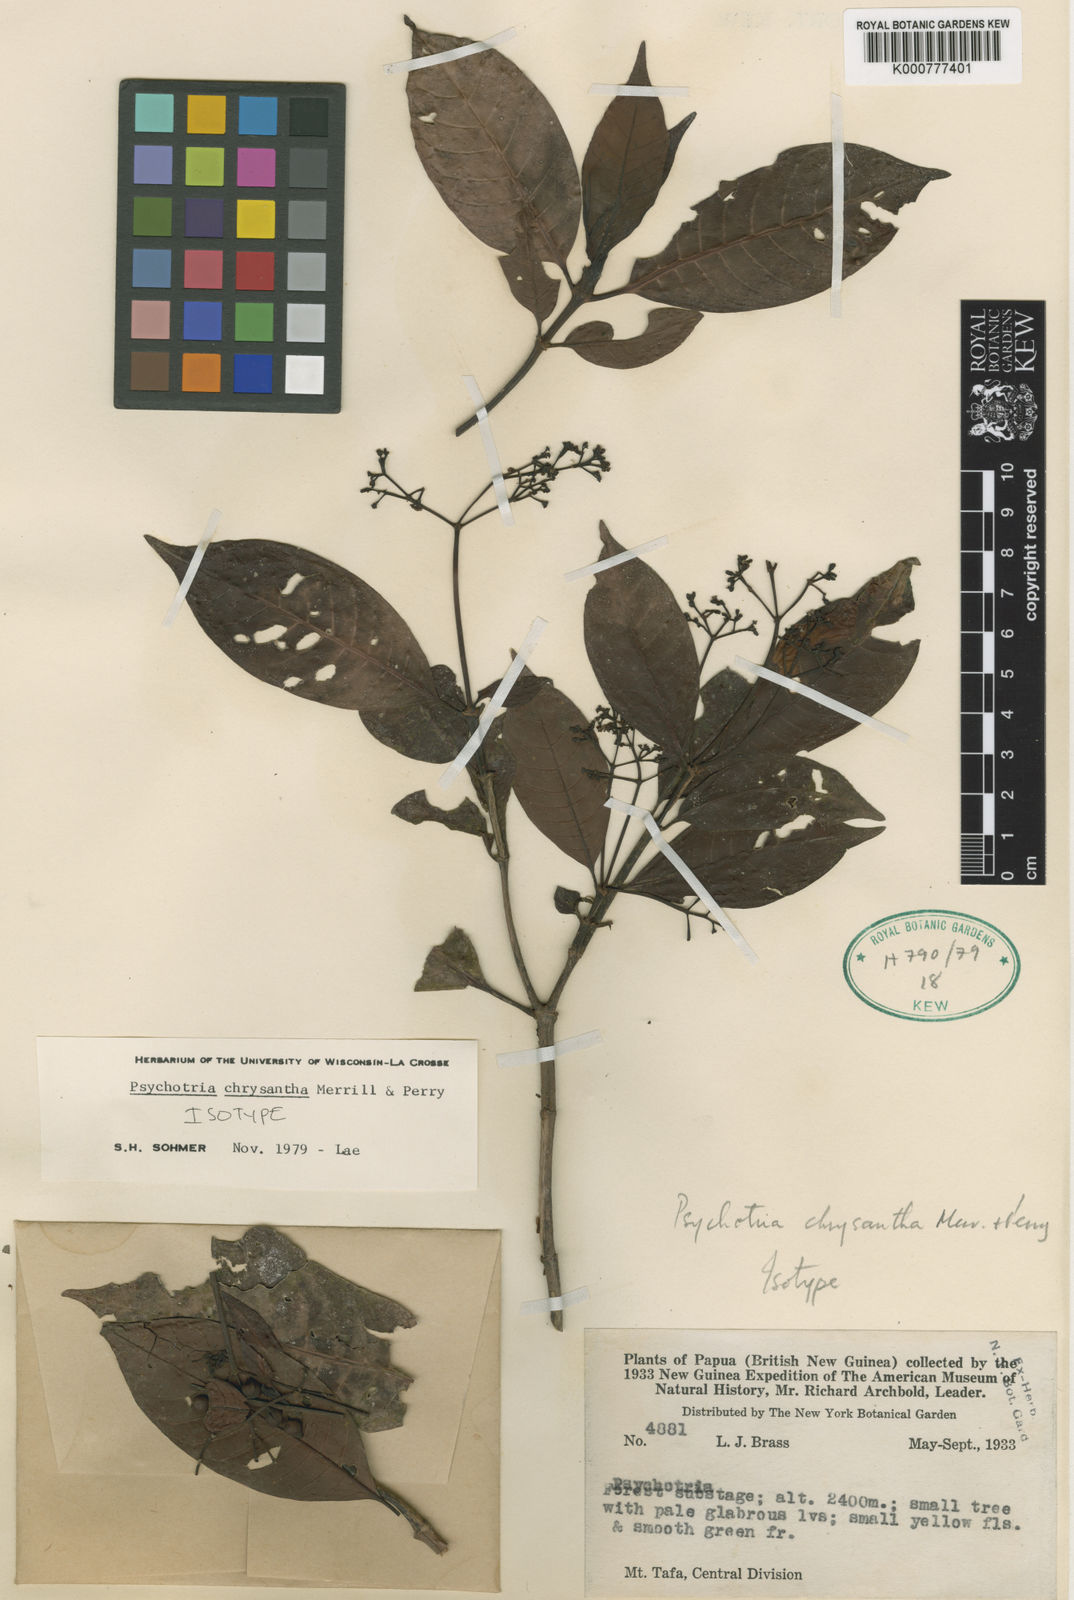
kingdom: Plantae
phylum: Tracheophyta
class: Magnoliopsida
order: Gentianales
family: Rubiaceae
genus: Psychotria
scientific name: Psychotria chrysantha
